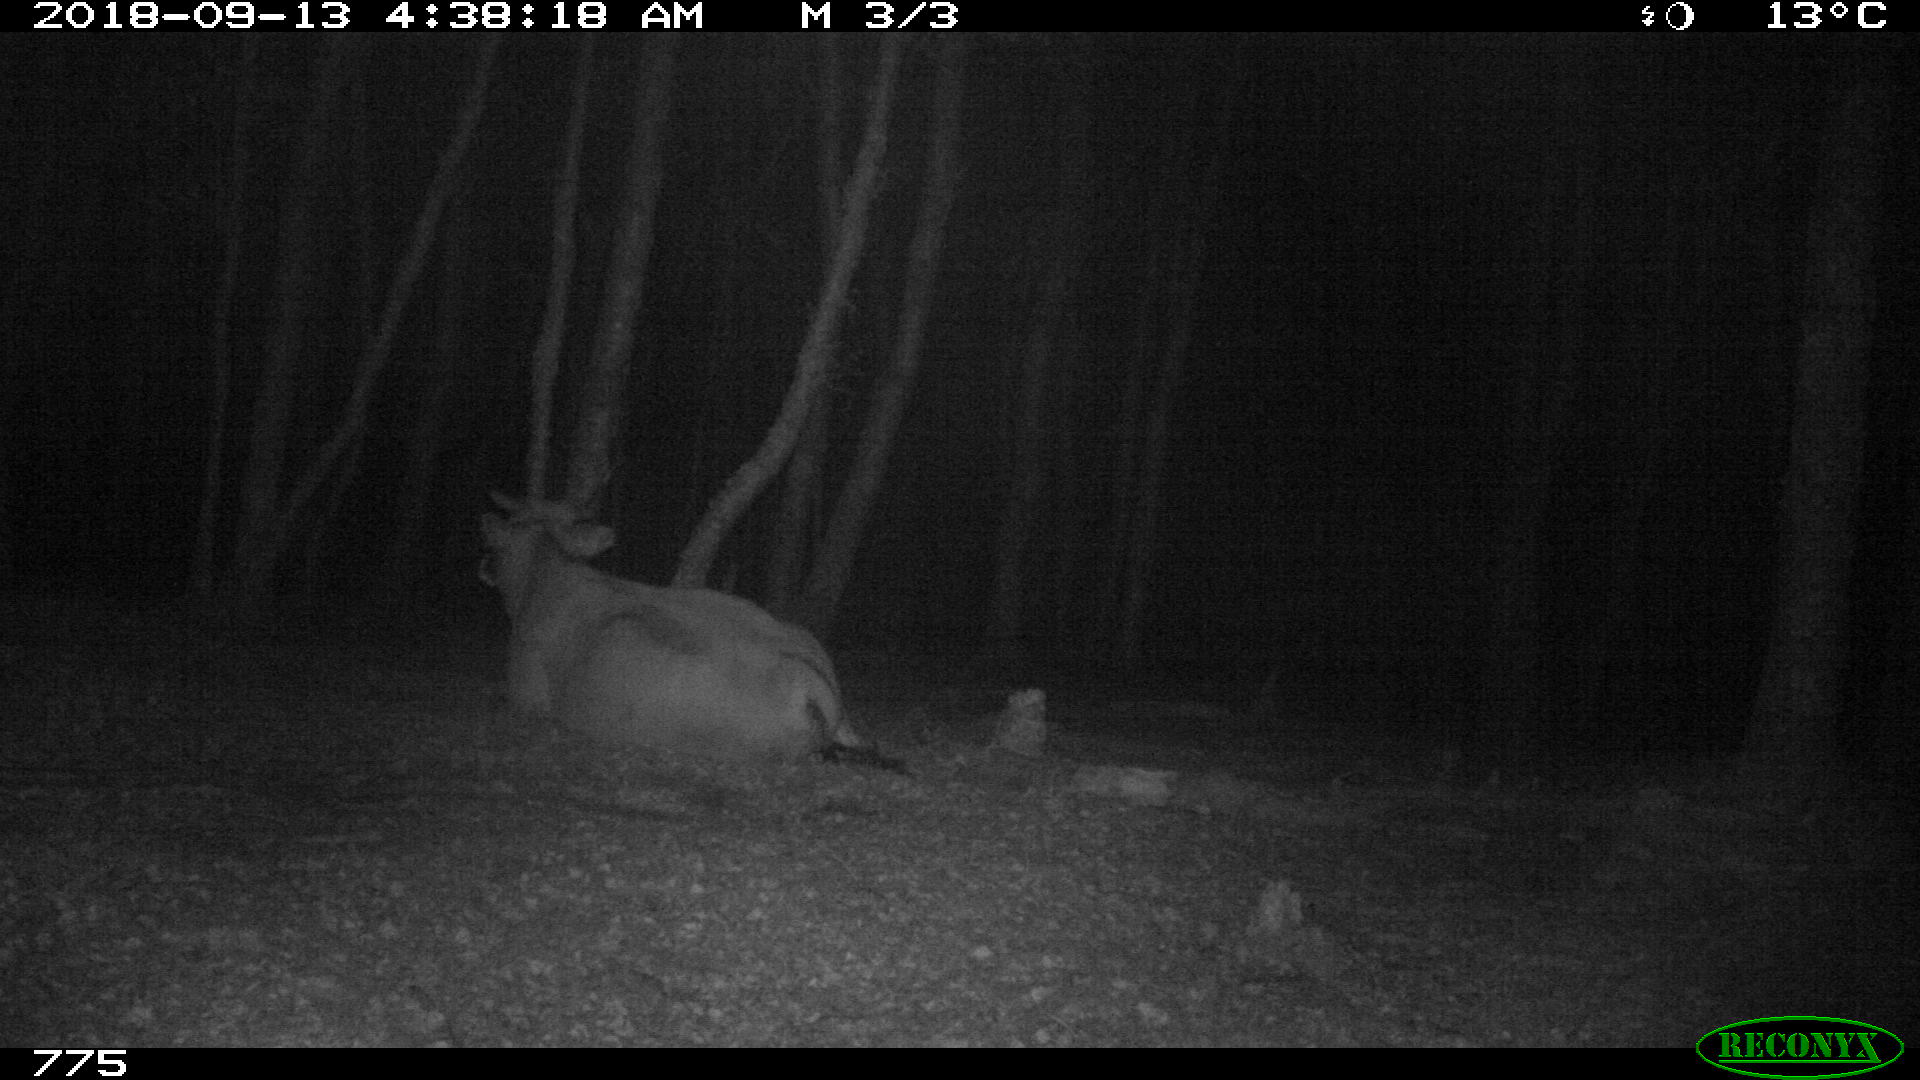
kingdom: Animalia
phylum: Chordata
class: Mammalia
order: Artiodactyla
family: Bovidae
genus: Bos
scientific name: Bos taurus
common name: Domesticated cattle
